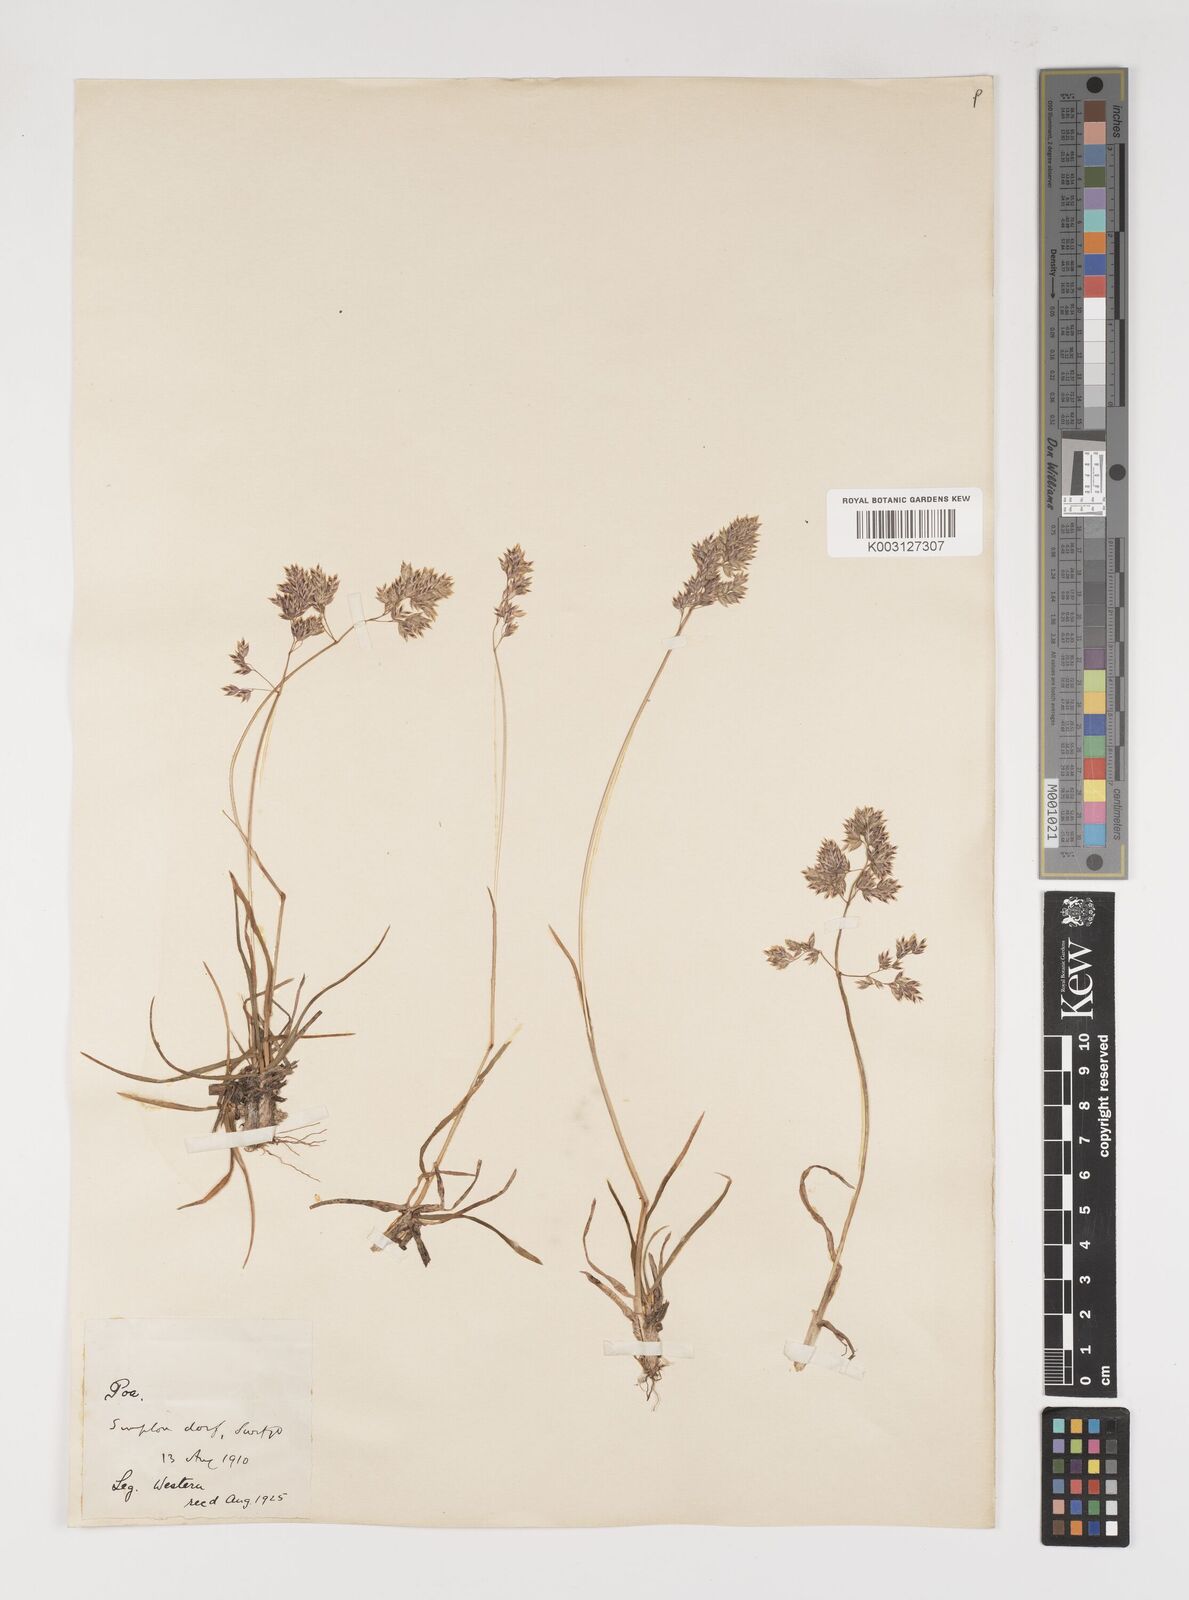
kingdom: Plantae
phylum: Tracheophyta
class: Liliopsida
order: Poales
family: Poaceae
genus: Poa
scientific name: Poa alpina
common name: Alpine bluegrass
